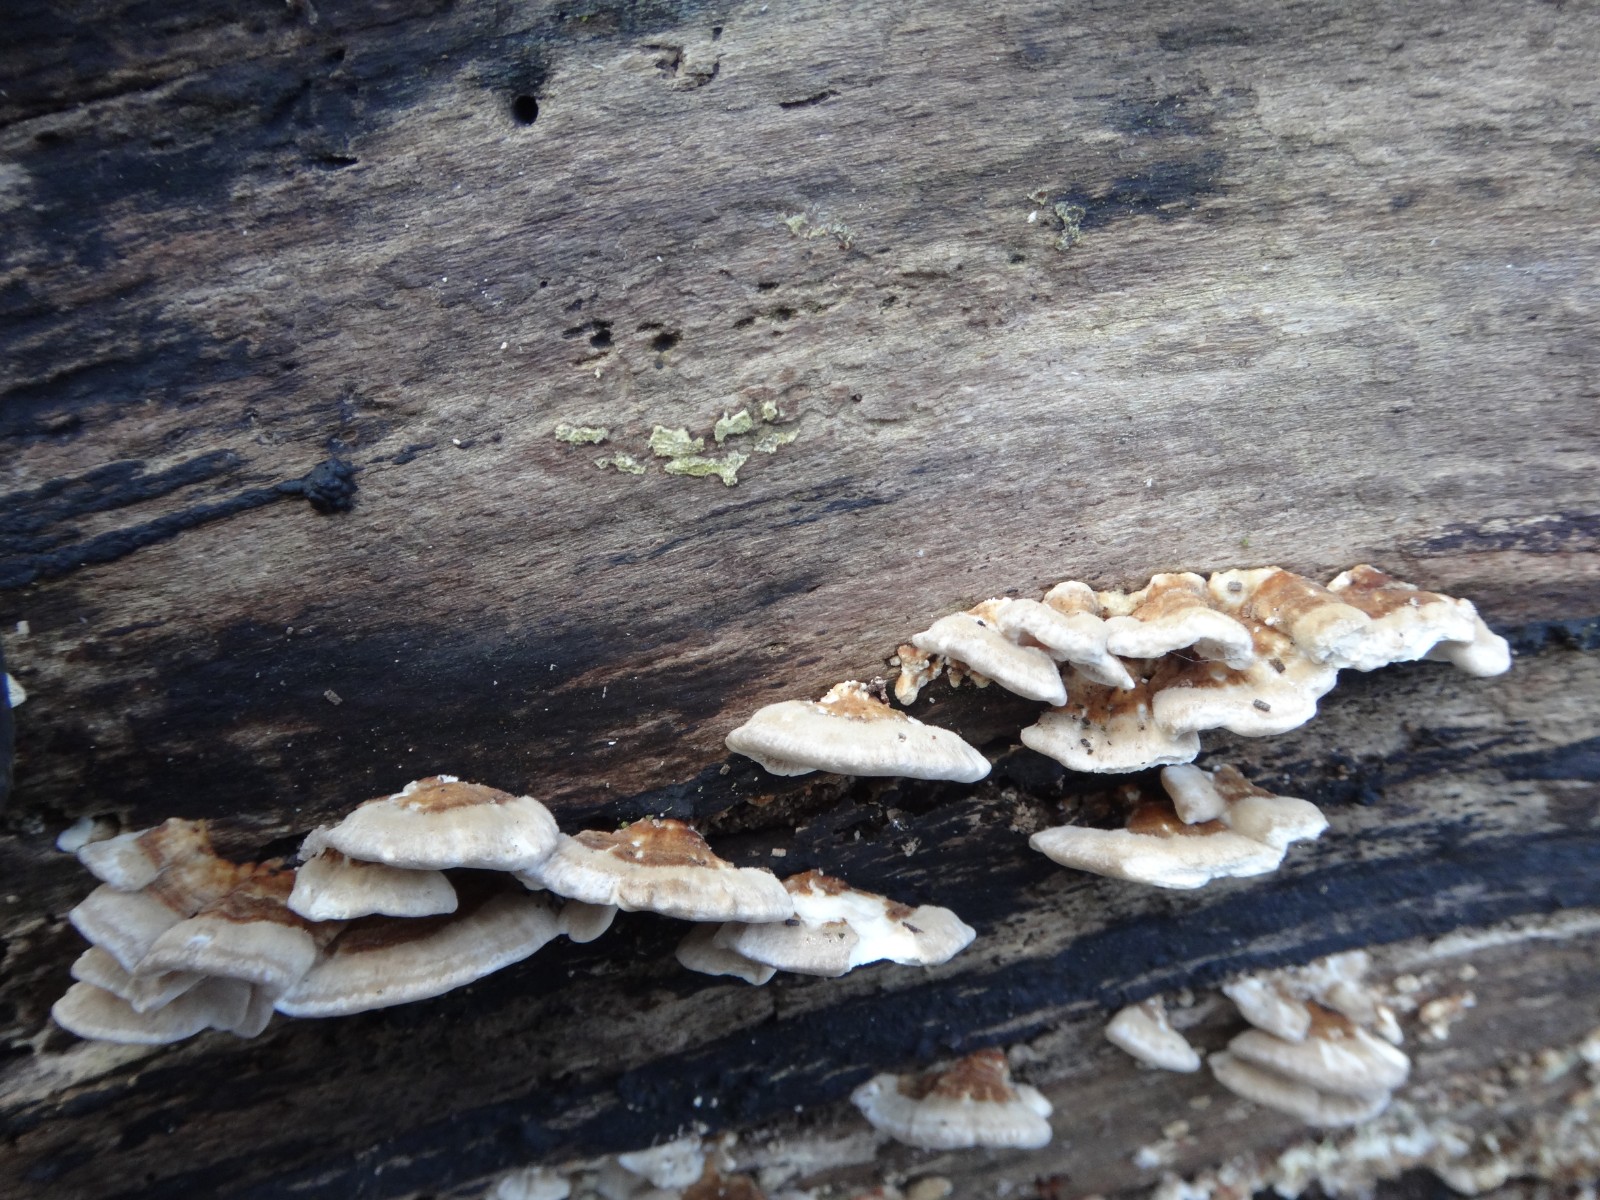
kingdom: Fungi
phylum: Basidiomycota
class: Agaricomycetes
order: Polyporales
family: Polyporaceae
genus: Trametes
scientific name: Trametes versicolor
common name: broget læderporesvamp
